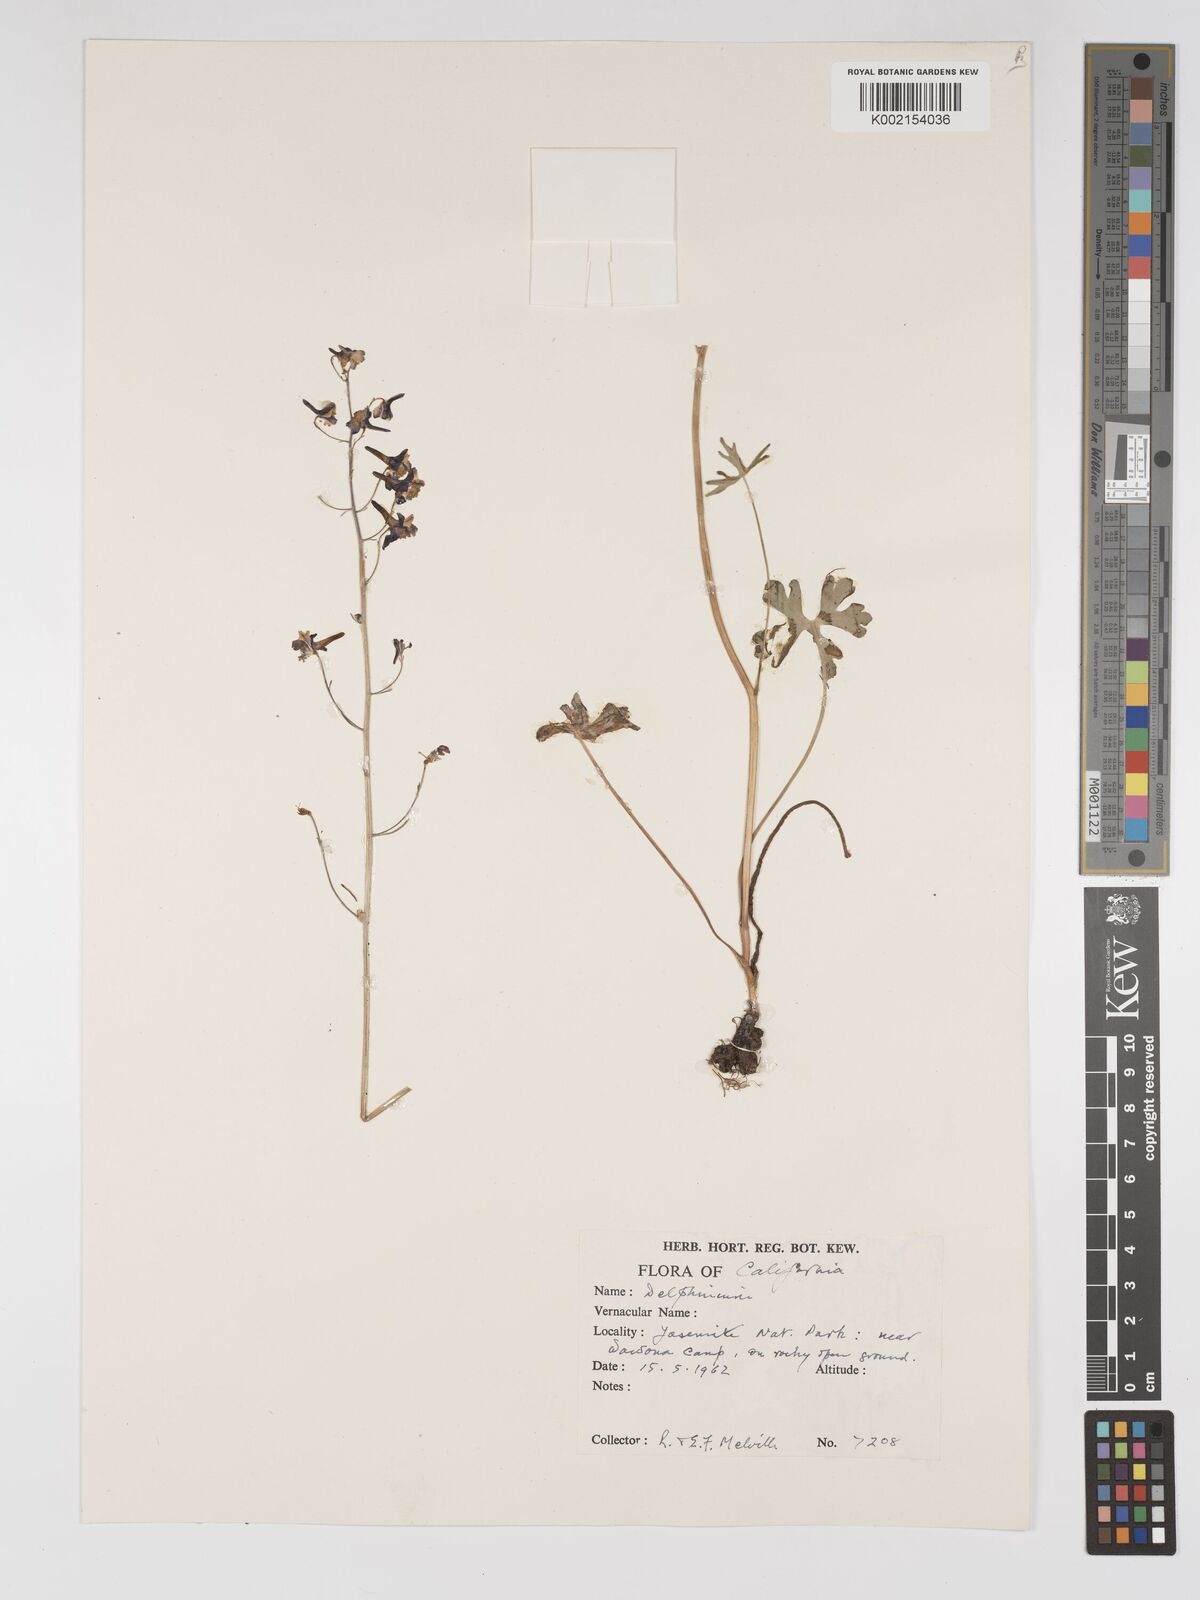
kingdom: Plantae
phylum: Tracheophyta
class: Magnoliopsida
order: Ranunculales
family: Ranunculaceae
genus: Delphinium
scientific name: Delphinium
